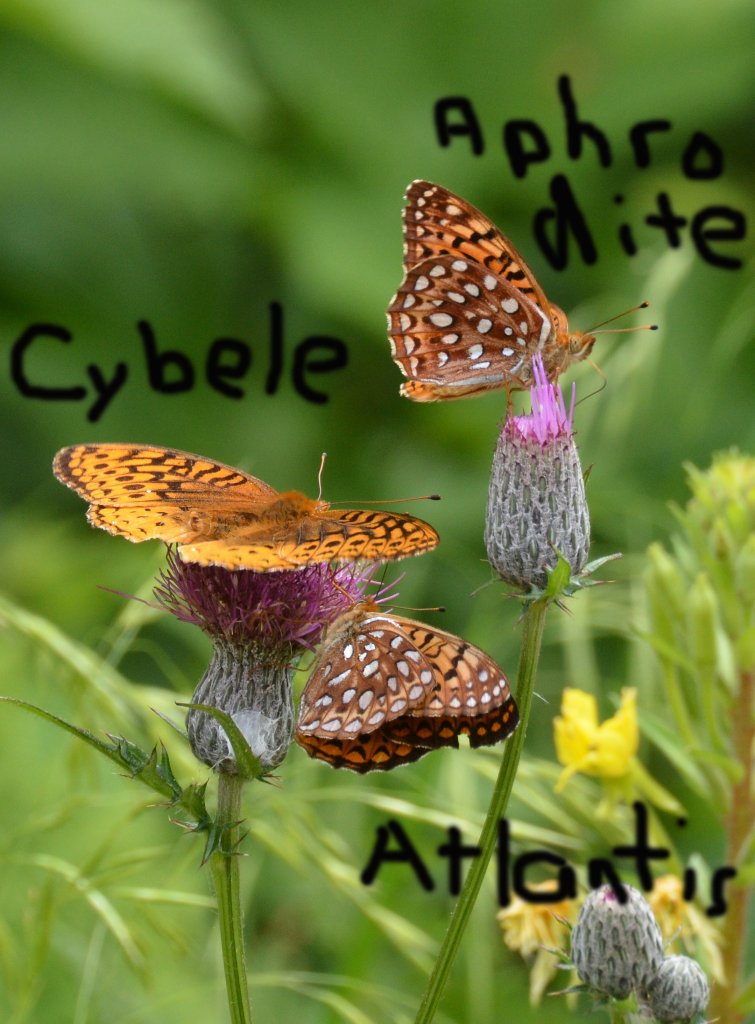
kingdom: Animalia
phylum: Arthropoda
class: Insecta
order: Lepidoptera
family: Nymphalidae
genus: Speyeria
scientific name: Speyeria aphrodite
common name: Aphrodite Fritillary
